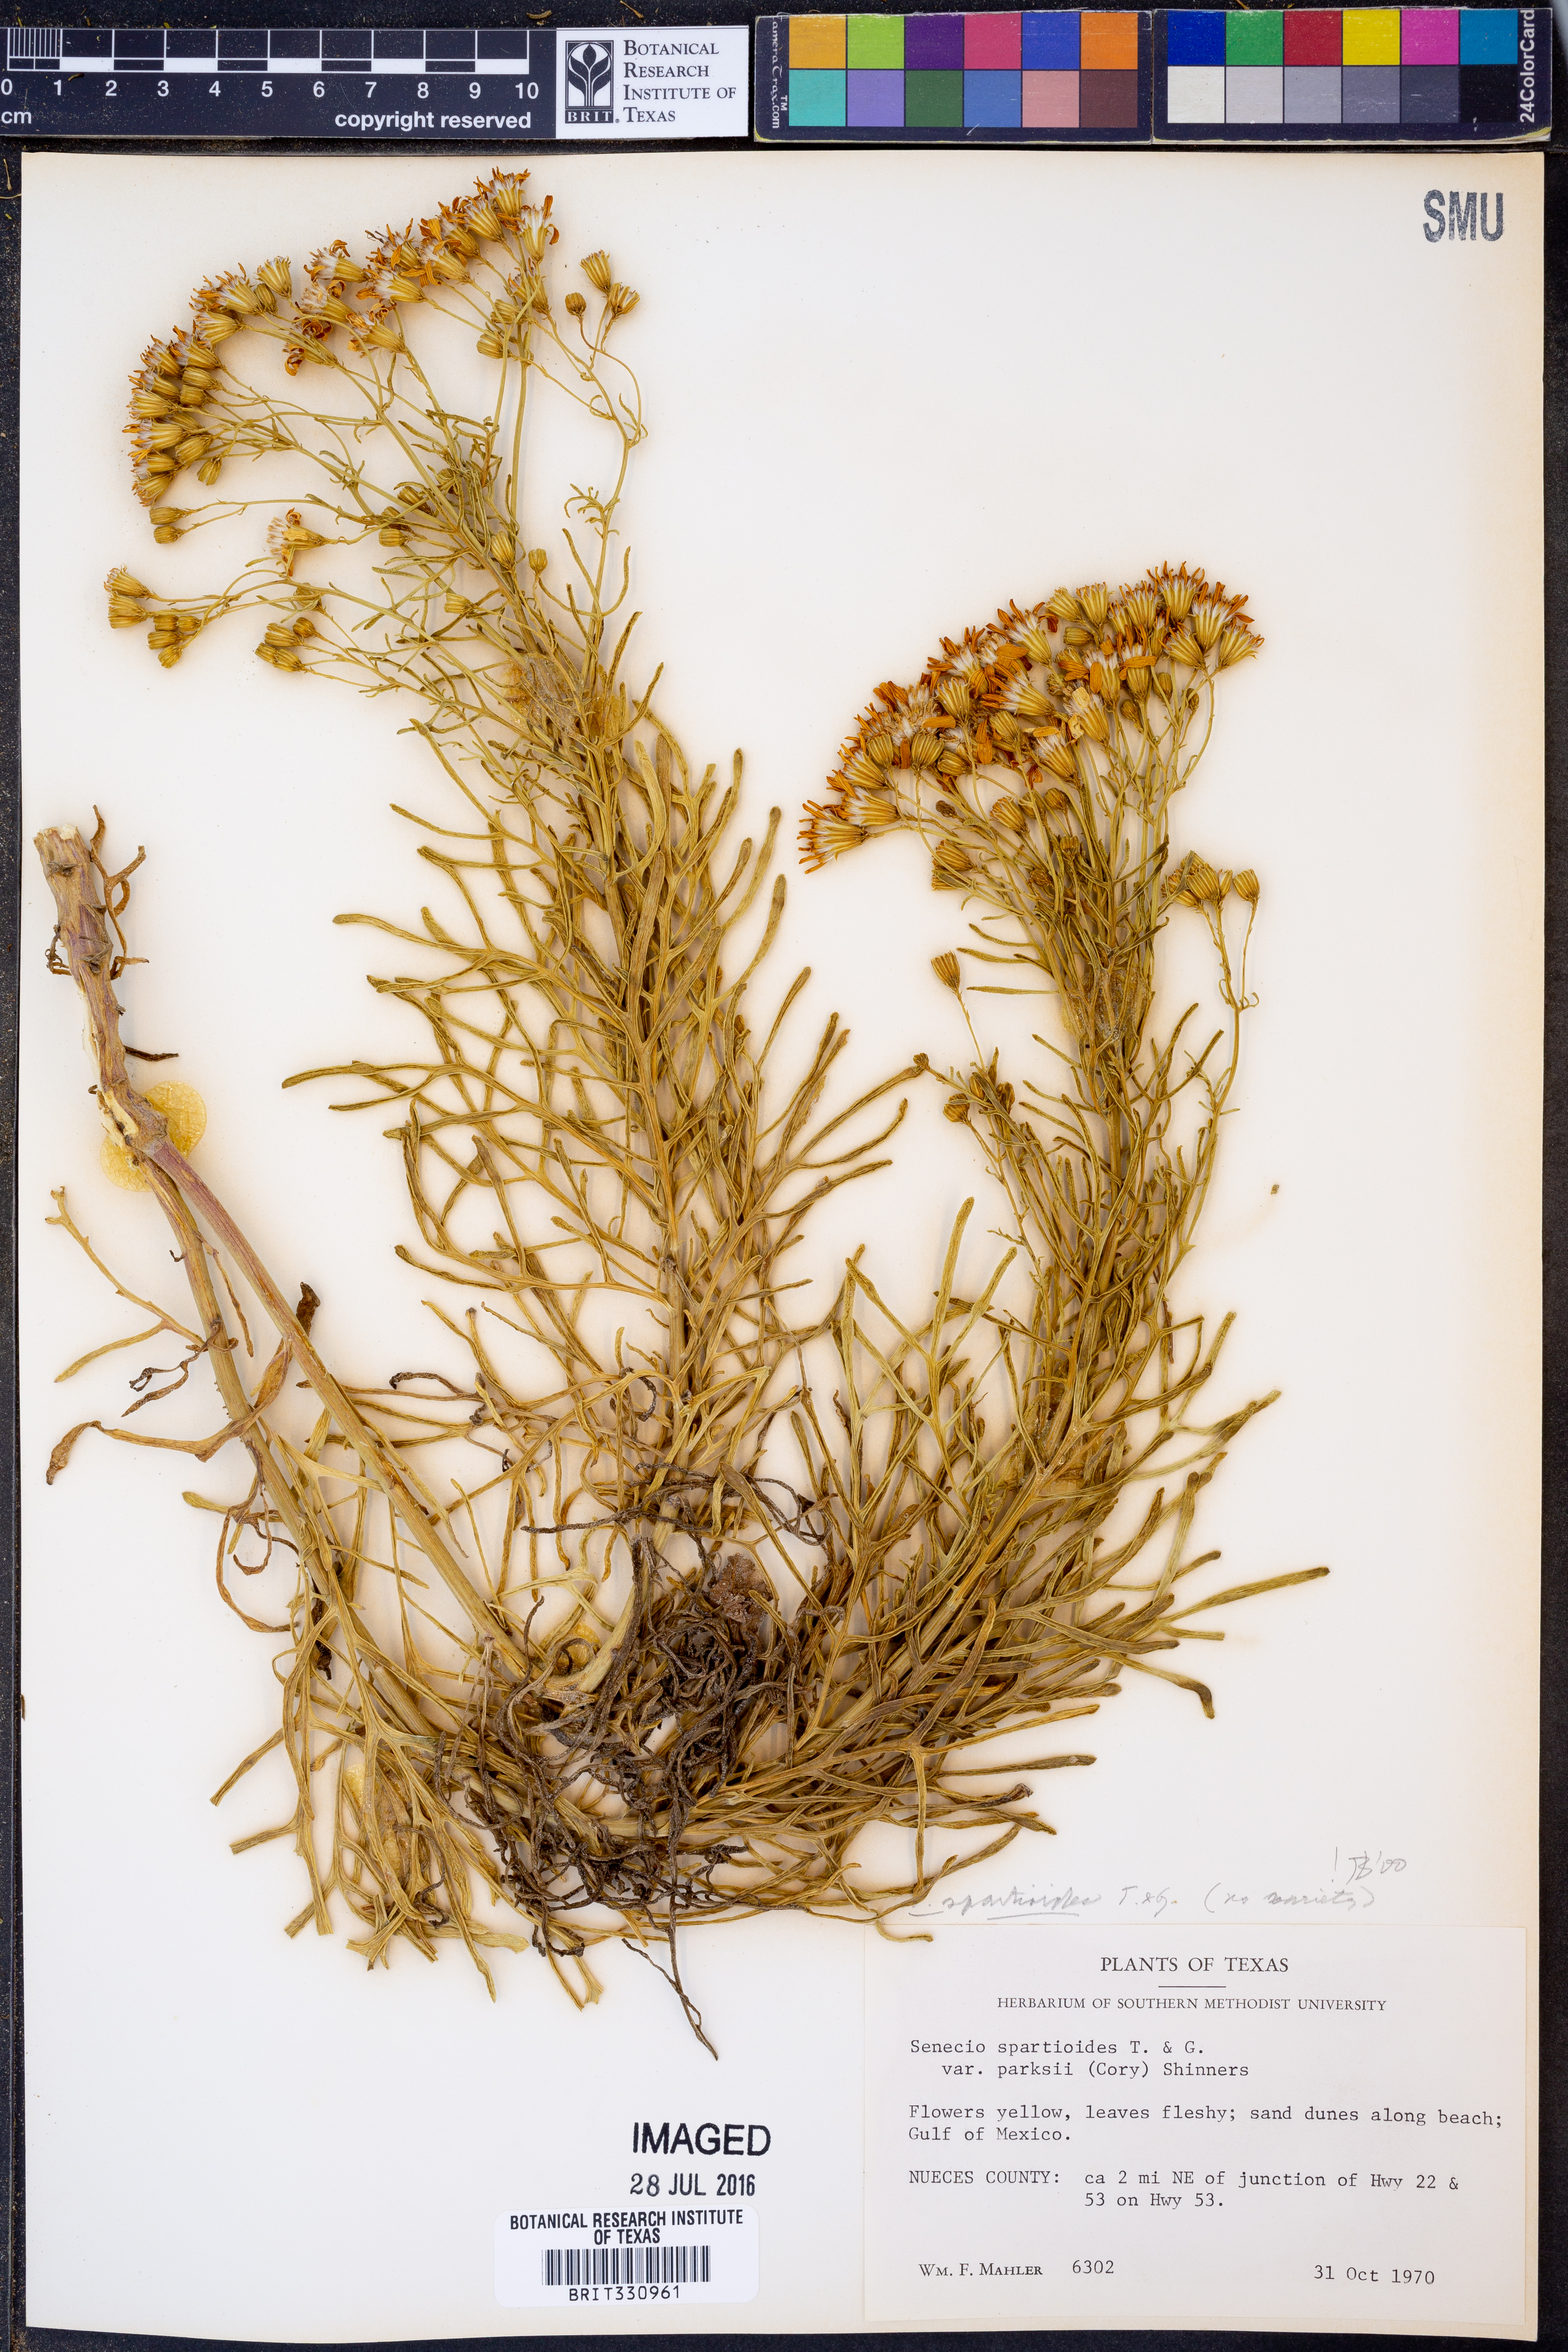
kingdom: Plantae
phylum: Tracheophyta
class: Magnoliopsida
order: Asterales
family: Asteraceae
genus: Senecio
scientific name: Senecio spartioides
